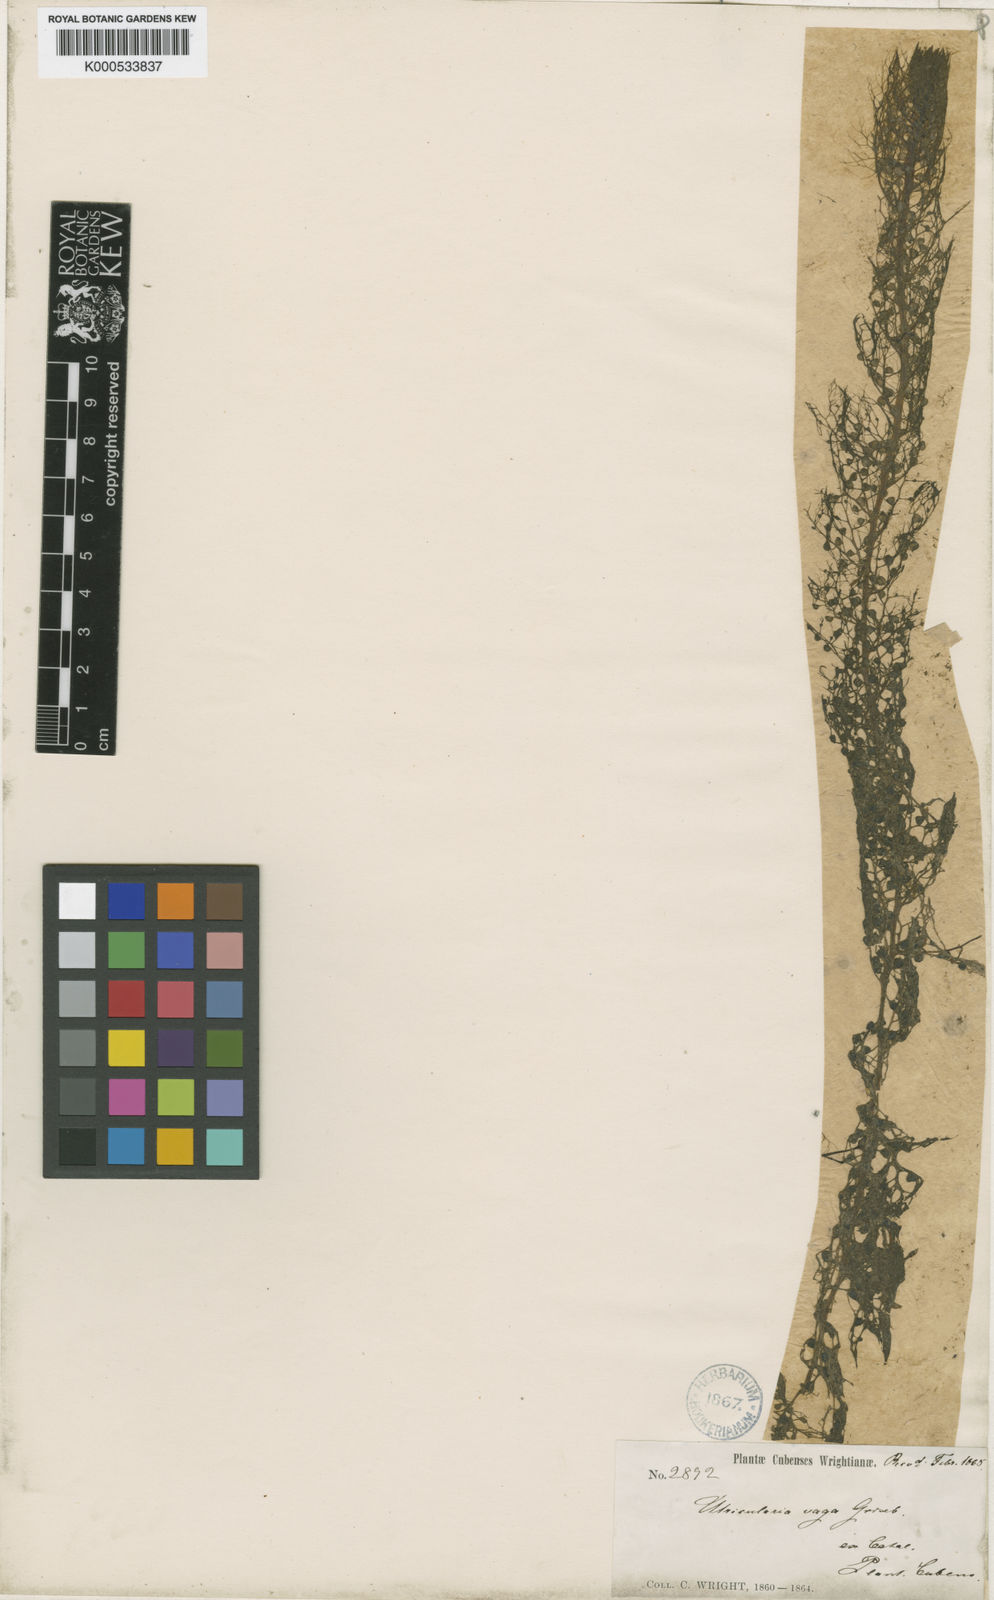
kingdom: Plantae
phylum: Tracheophyta
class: Magnoliopsida
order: Lamiales
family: Lentibulariaceae
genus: Utricularia
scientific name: Utricularia hydrocarpa
